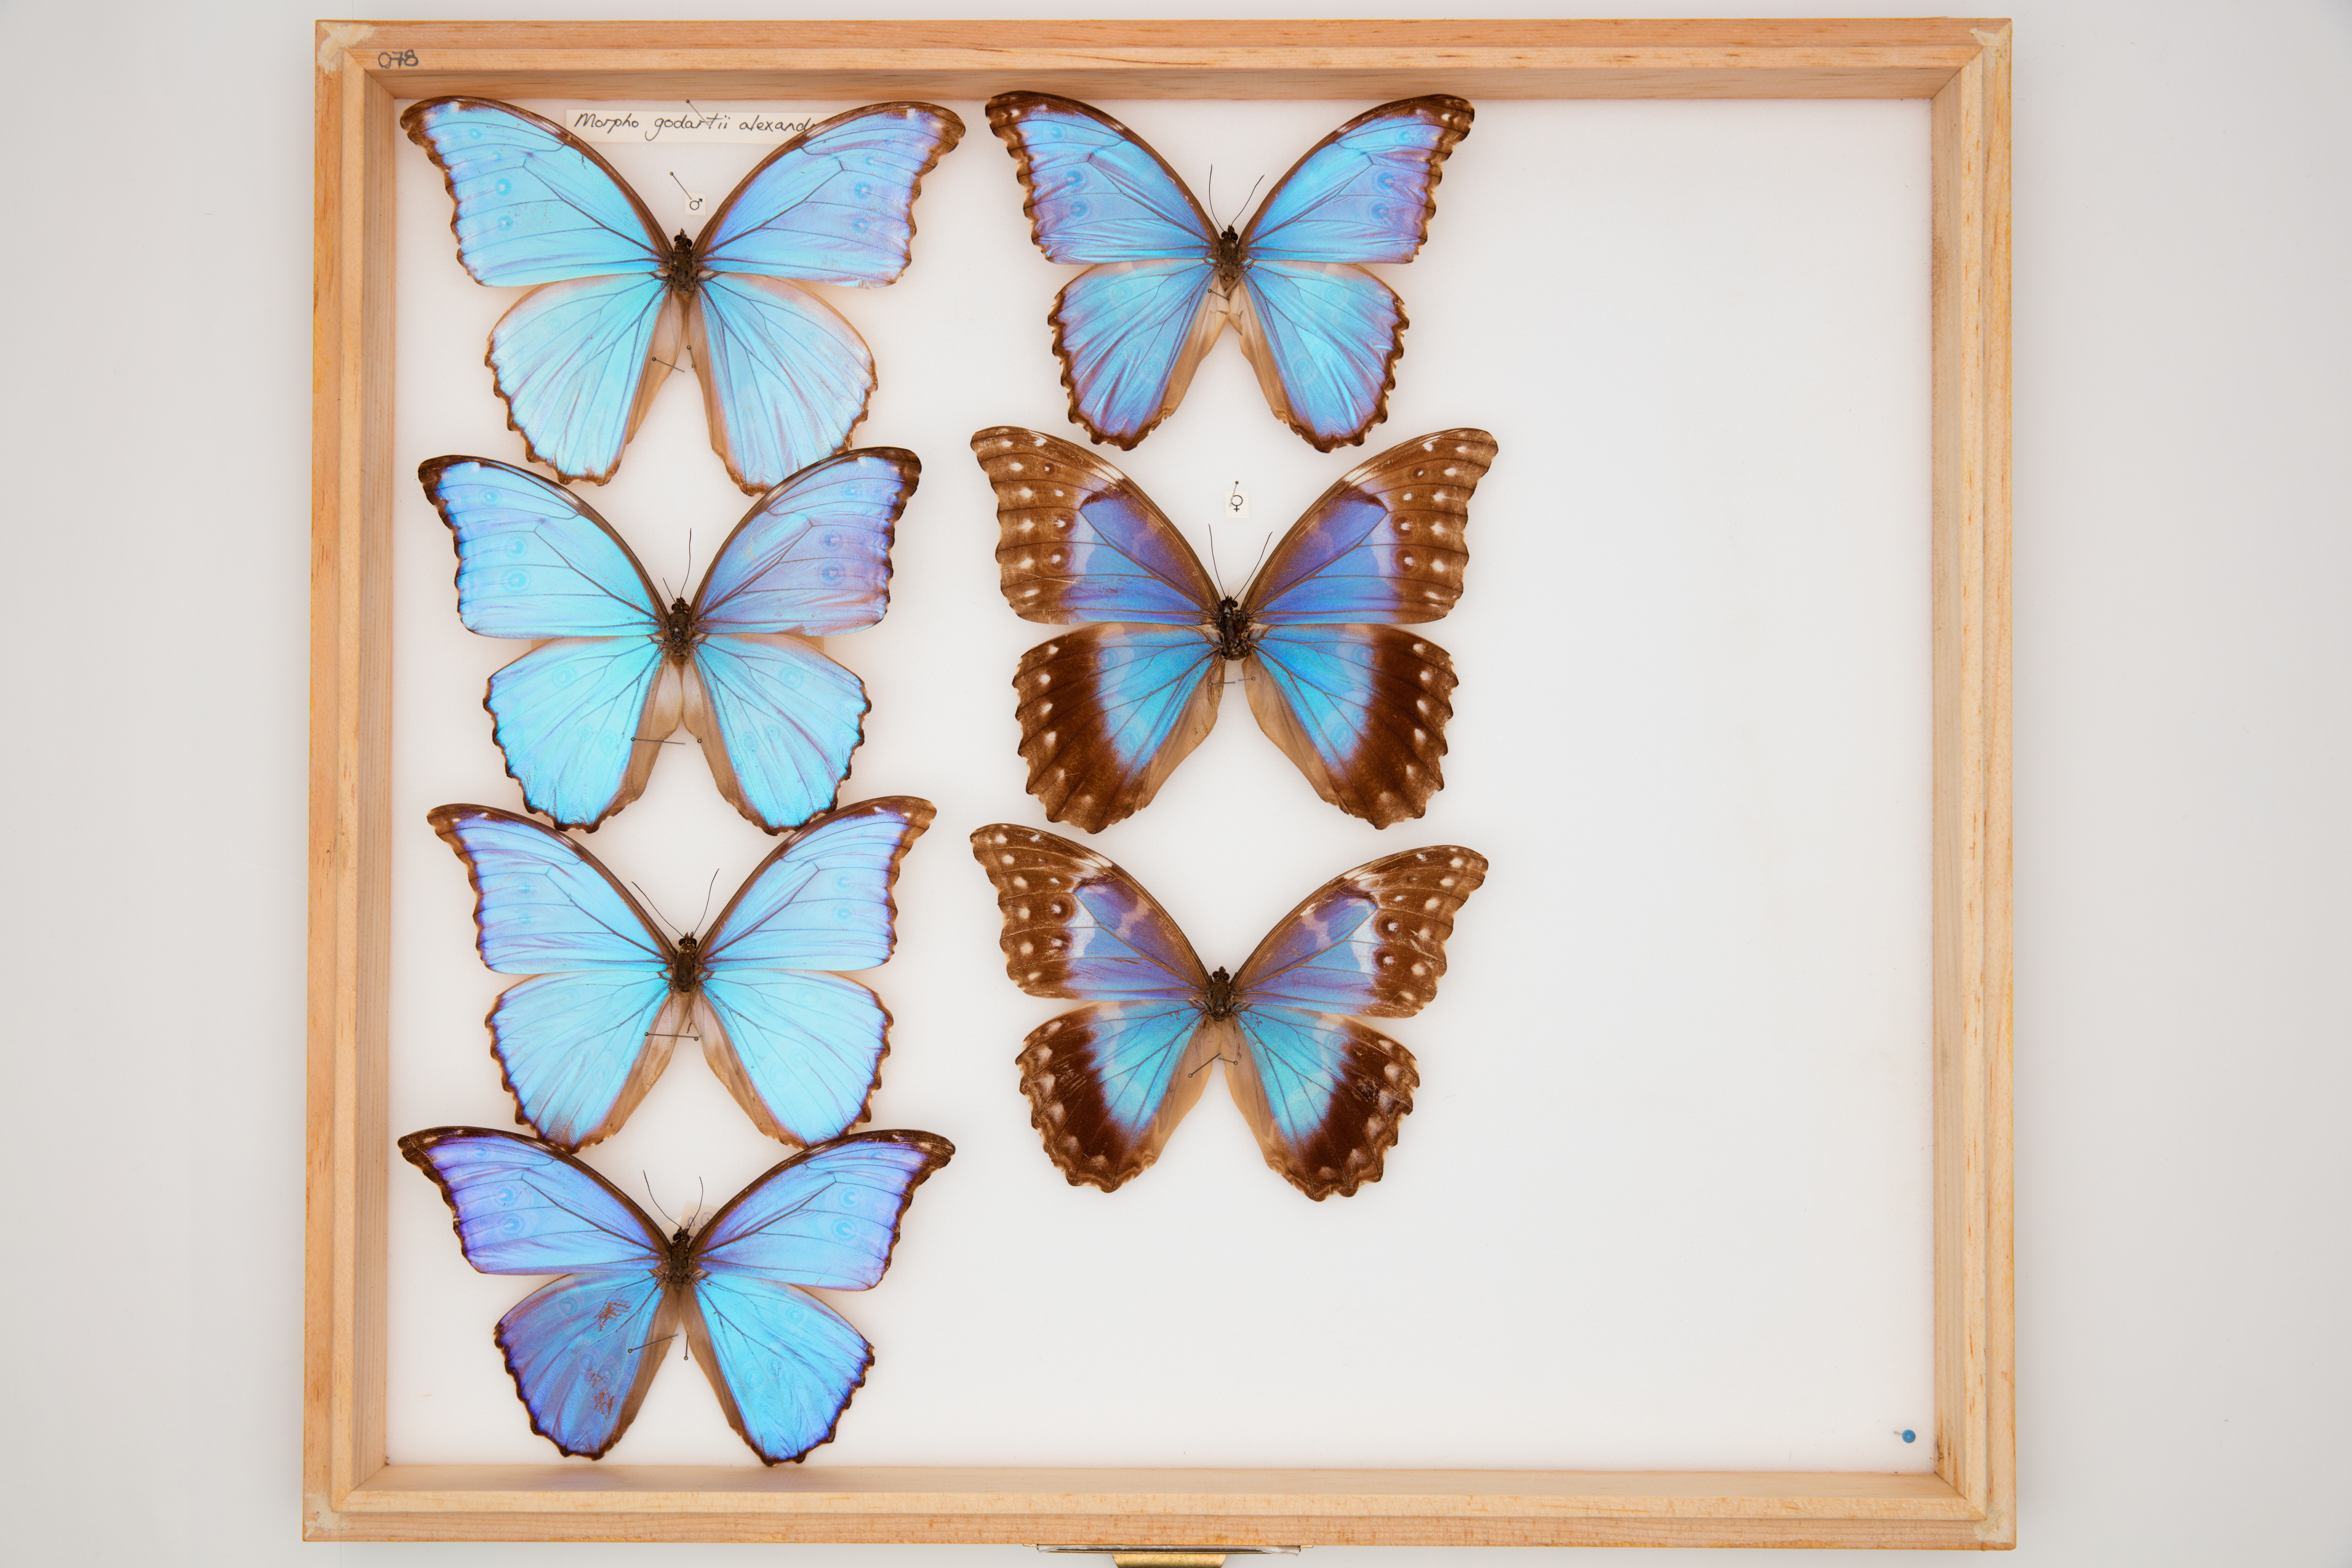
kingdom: Animalia
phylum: Arthropoda
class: Insecta
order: Lepidoptera
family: Nymphalidae
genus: Morpho
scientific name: Morpho godartii
